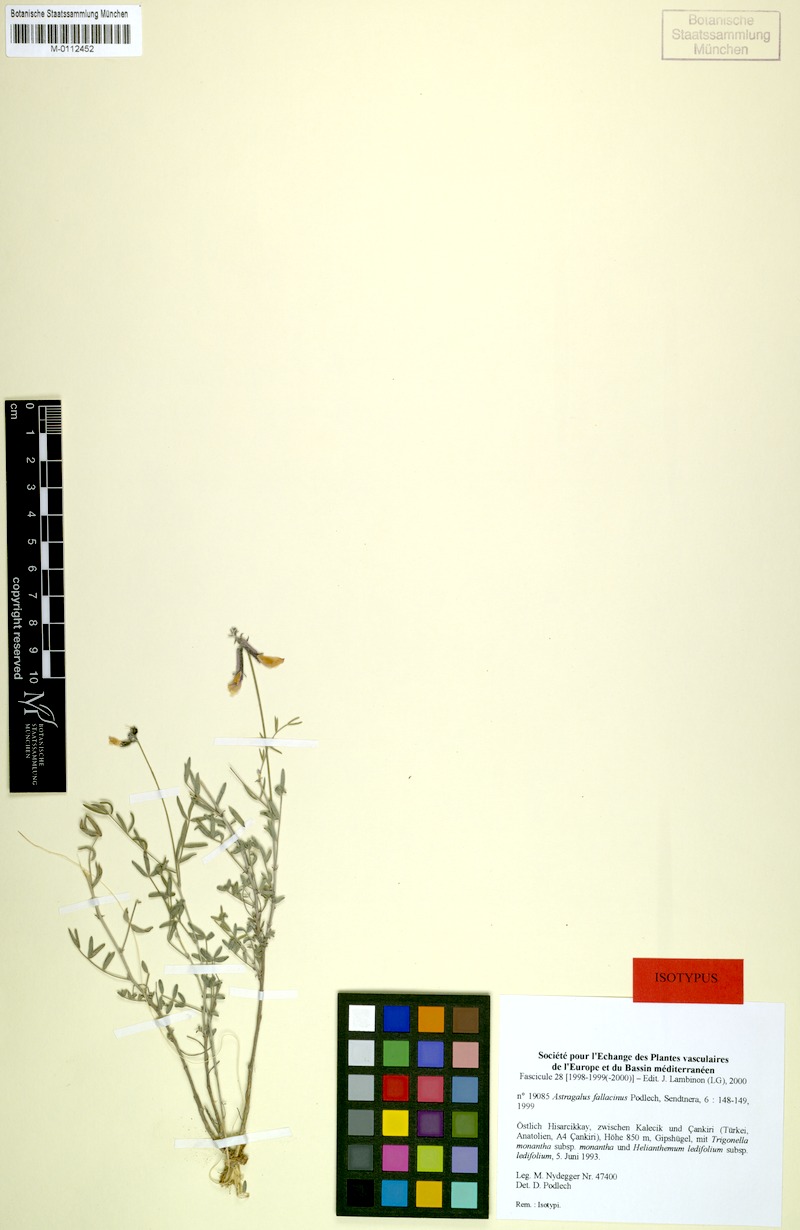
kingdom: Plantae
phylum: Tracheophyta
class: Magnoliopsida
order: Fabales
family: Fabaceae
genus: Astragalus
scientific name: Astragalus fallacinus
